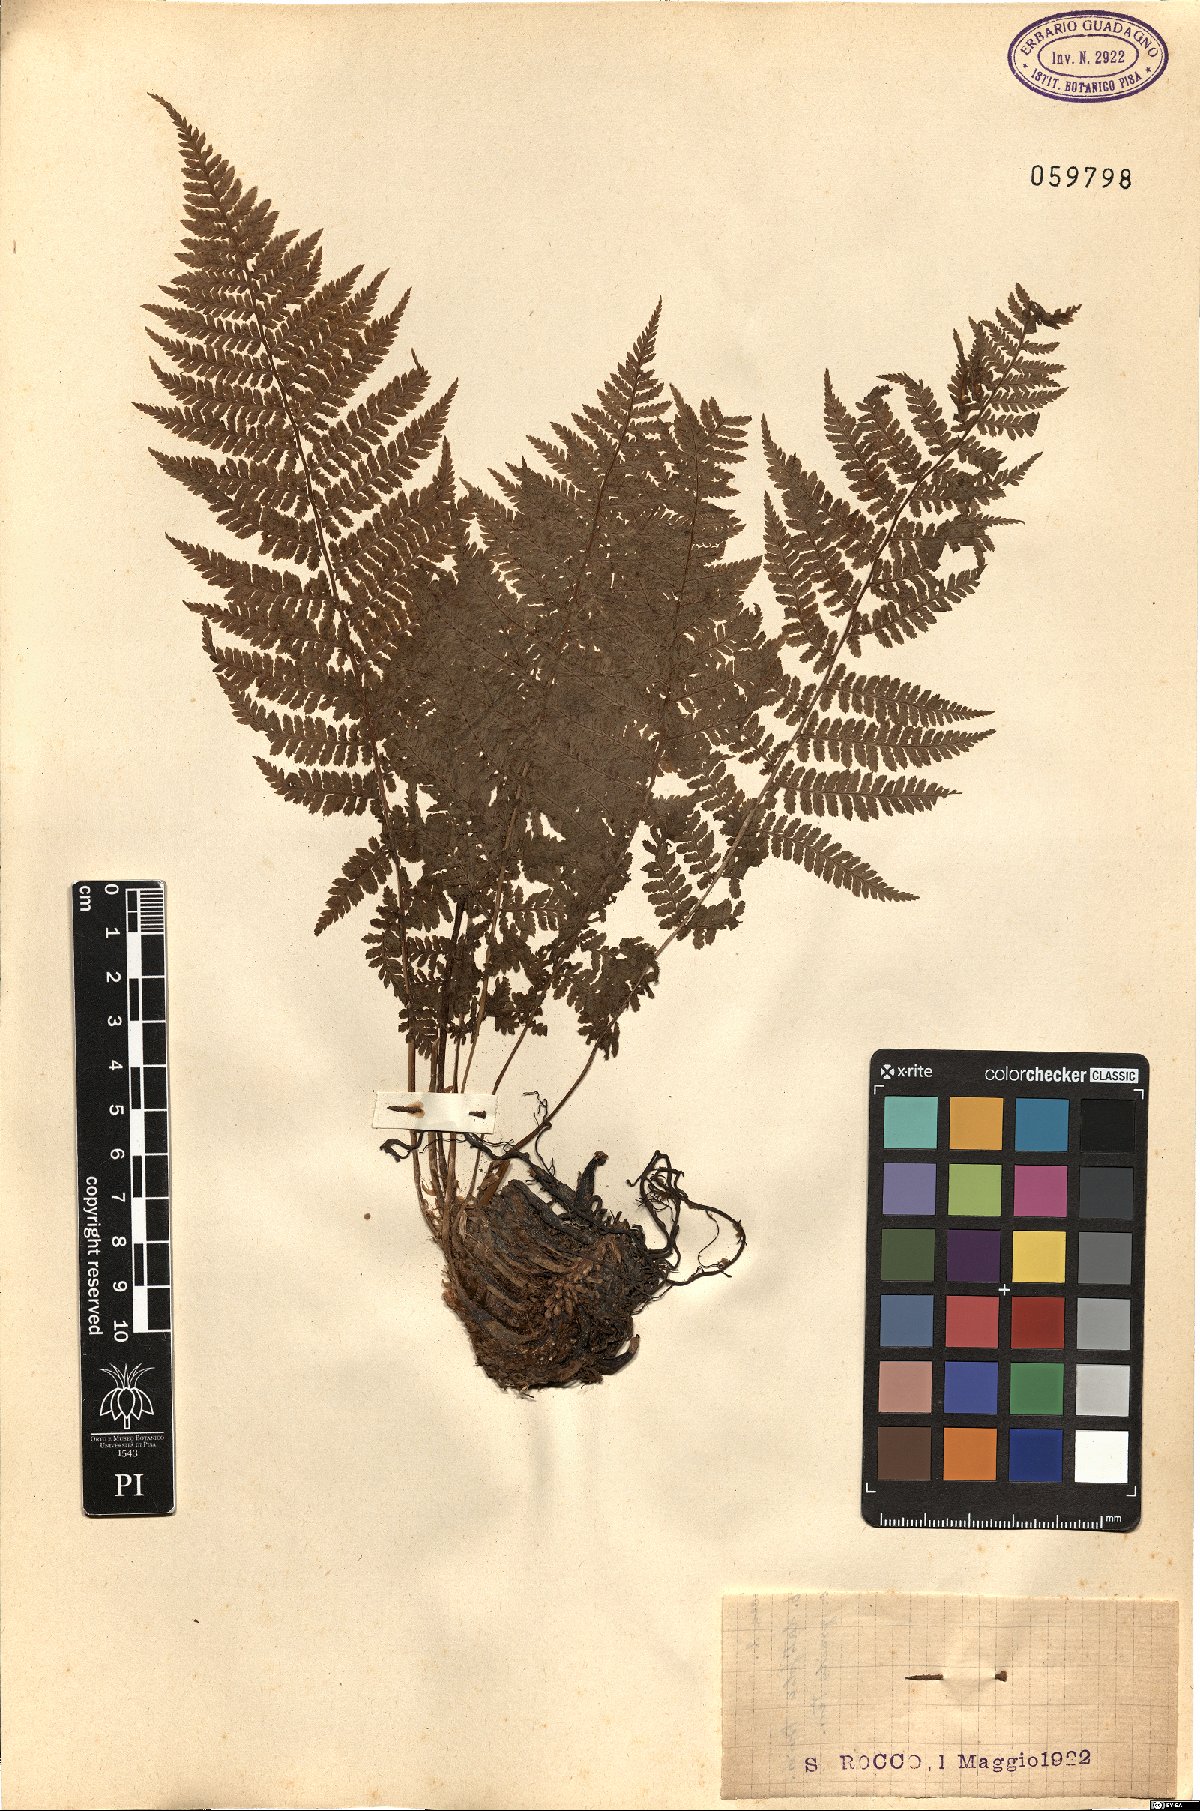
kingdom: Plantae
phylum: Tracheophyta
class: Polypodiopsida
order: Polypodiales
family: Dryopteridaceae
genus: Dryopteris
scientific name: Dryopteris
